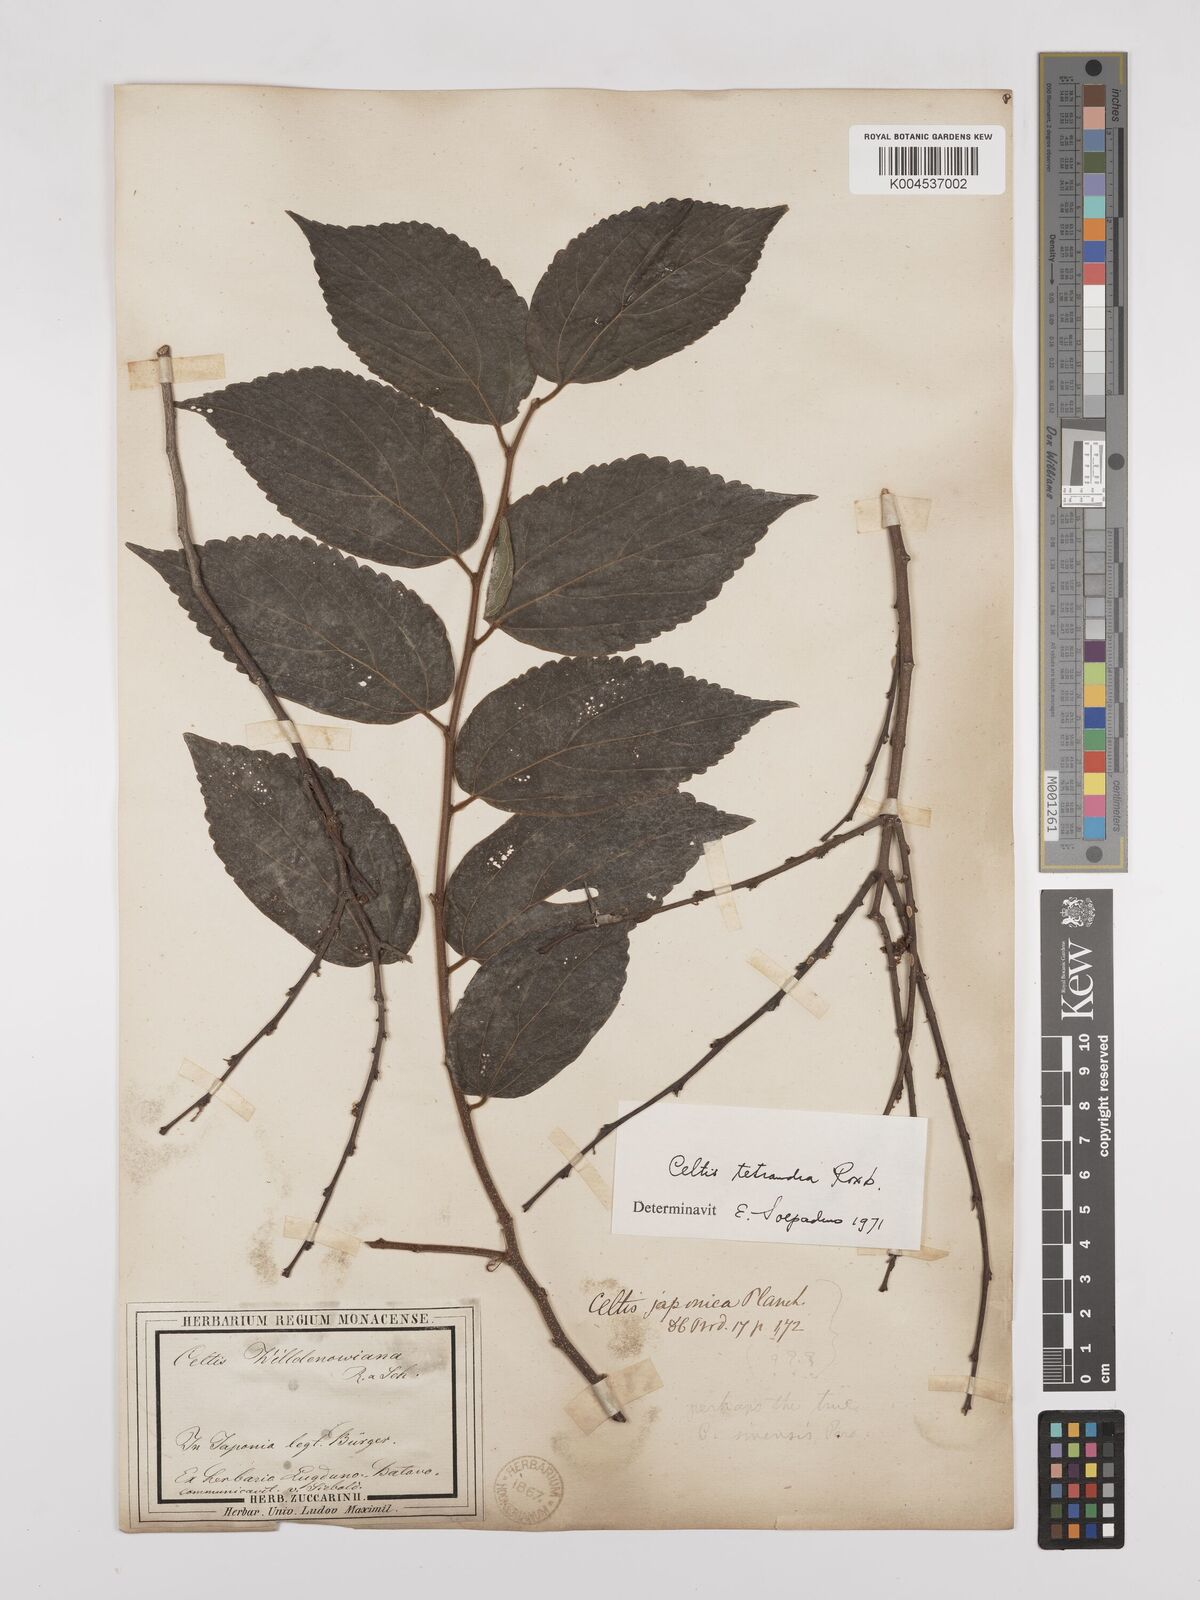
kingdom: Plantae
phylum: Tracheophyta
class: Magnoliopsida
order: Rosales
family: Cannabaceae
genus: Celtis
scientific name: Celtis tetrandra
